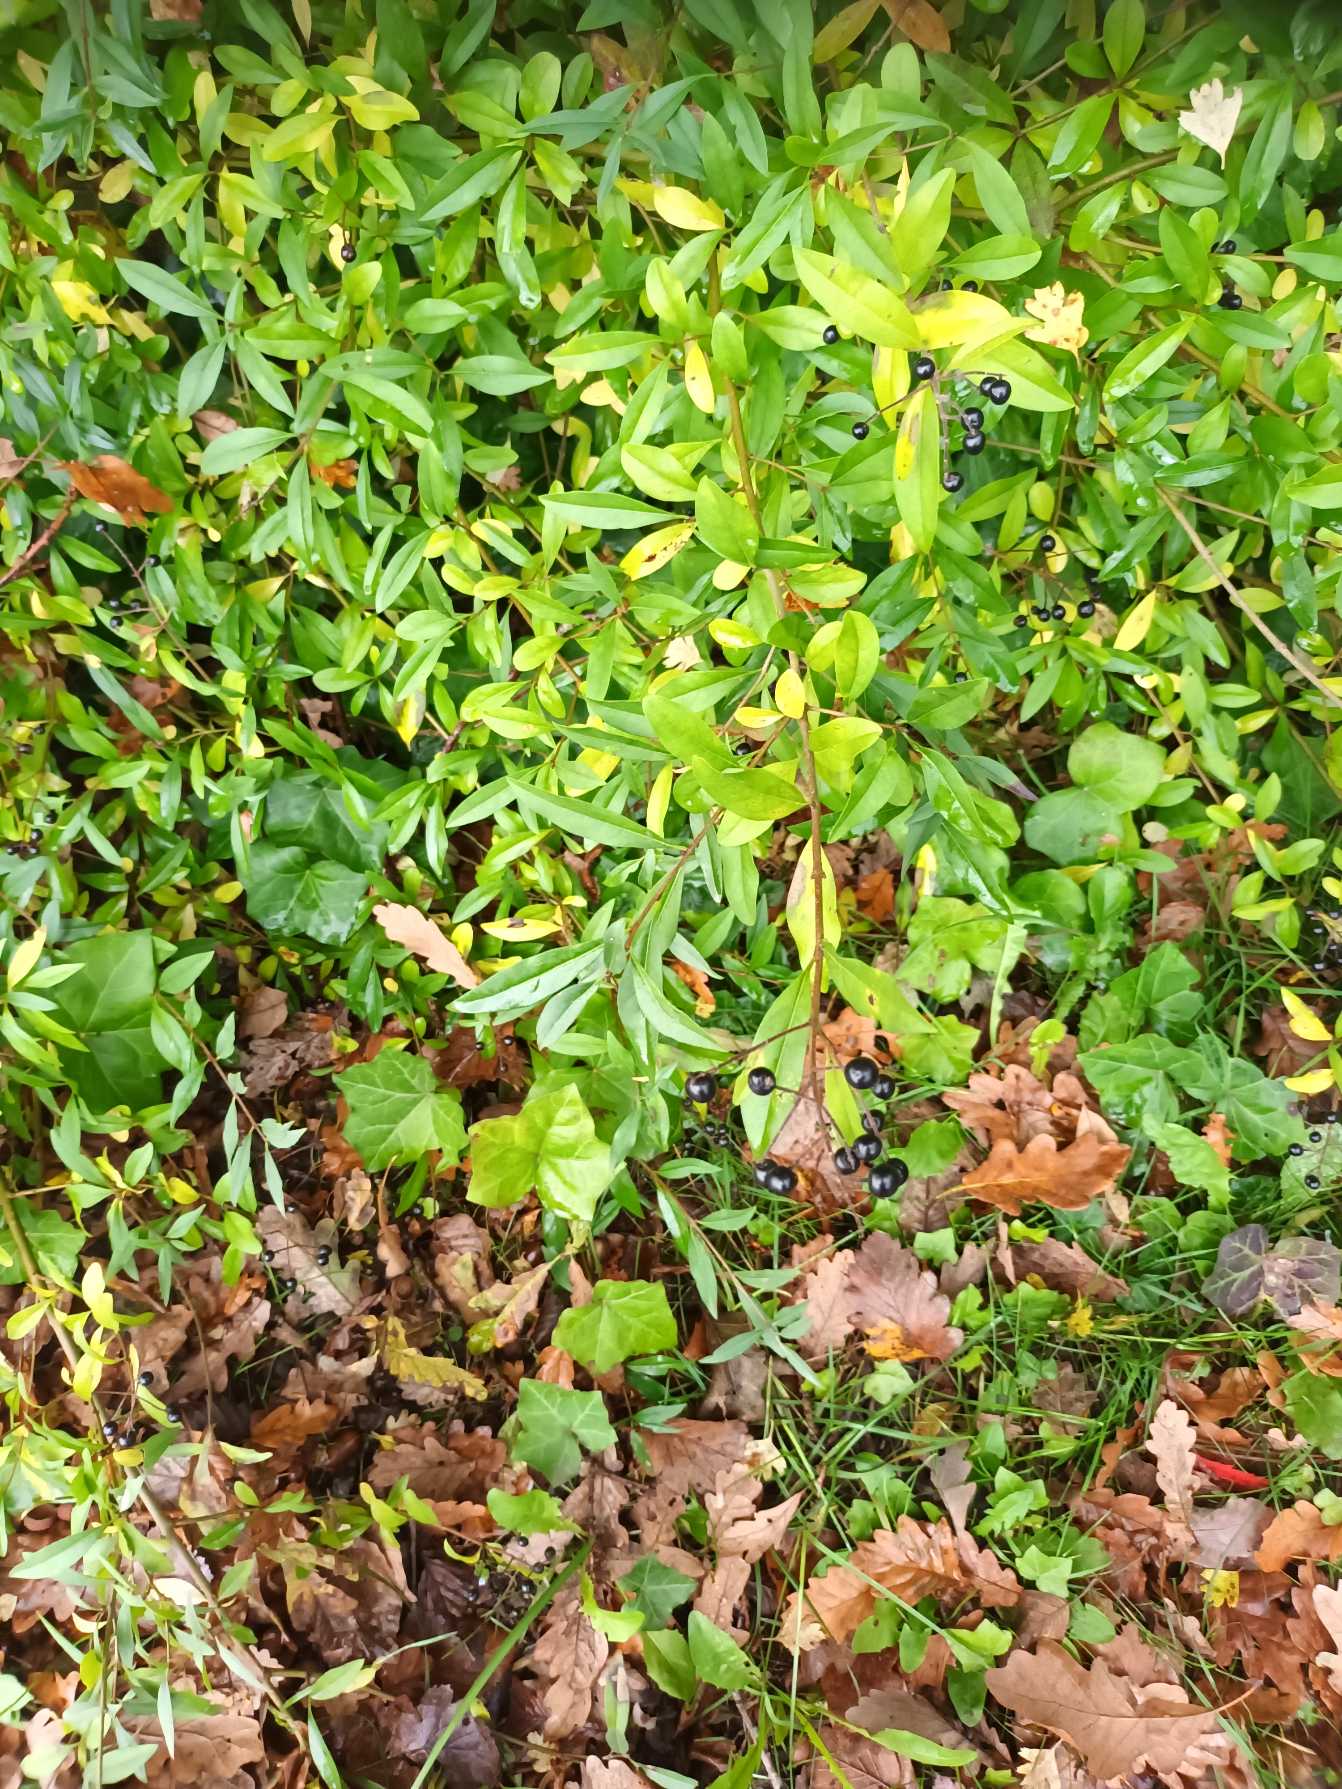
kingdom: Plantae
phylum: Tracheophyta
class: Magnoliopsida
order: Lamiales
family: Oleaceae
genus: Ligustrum
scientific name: Ligustrum vulgare
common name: Liguster
